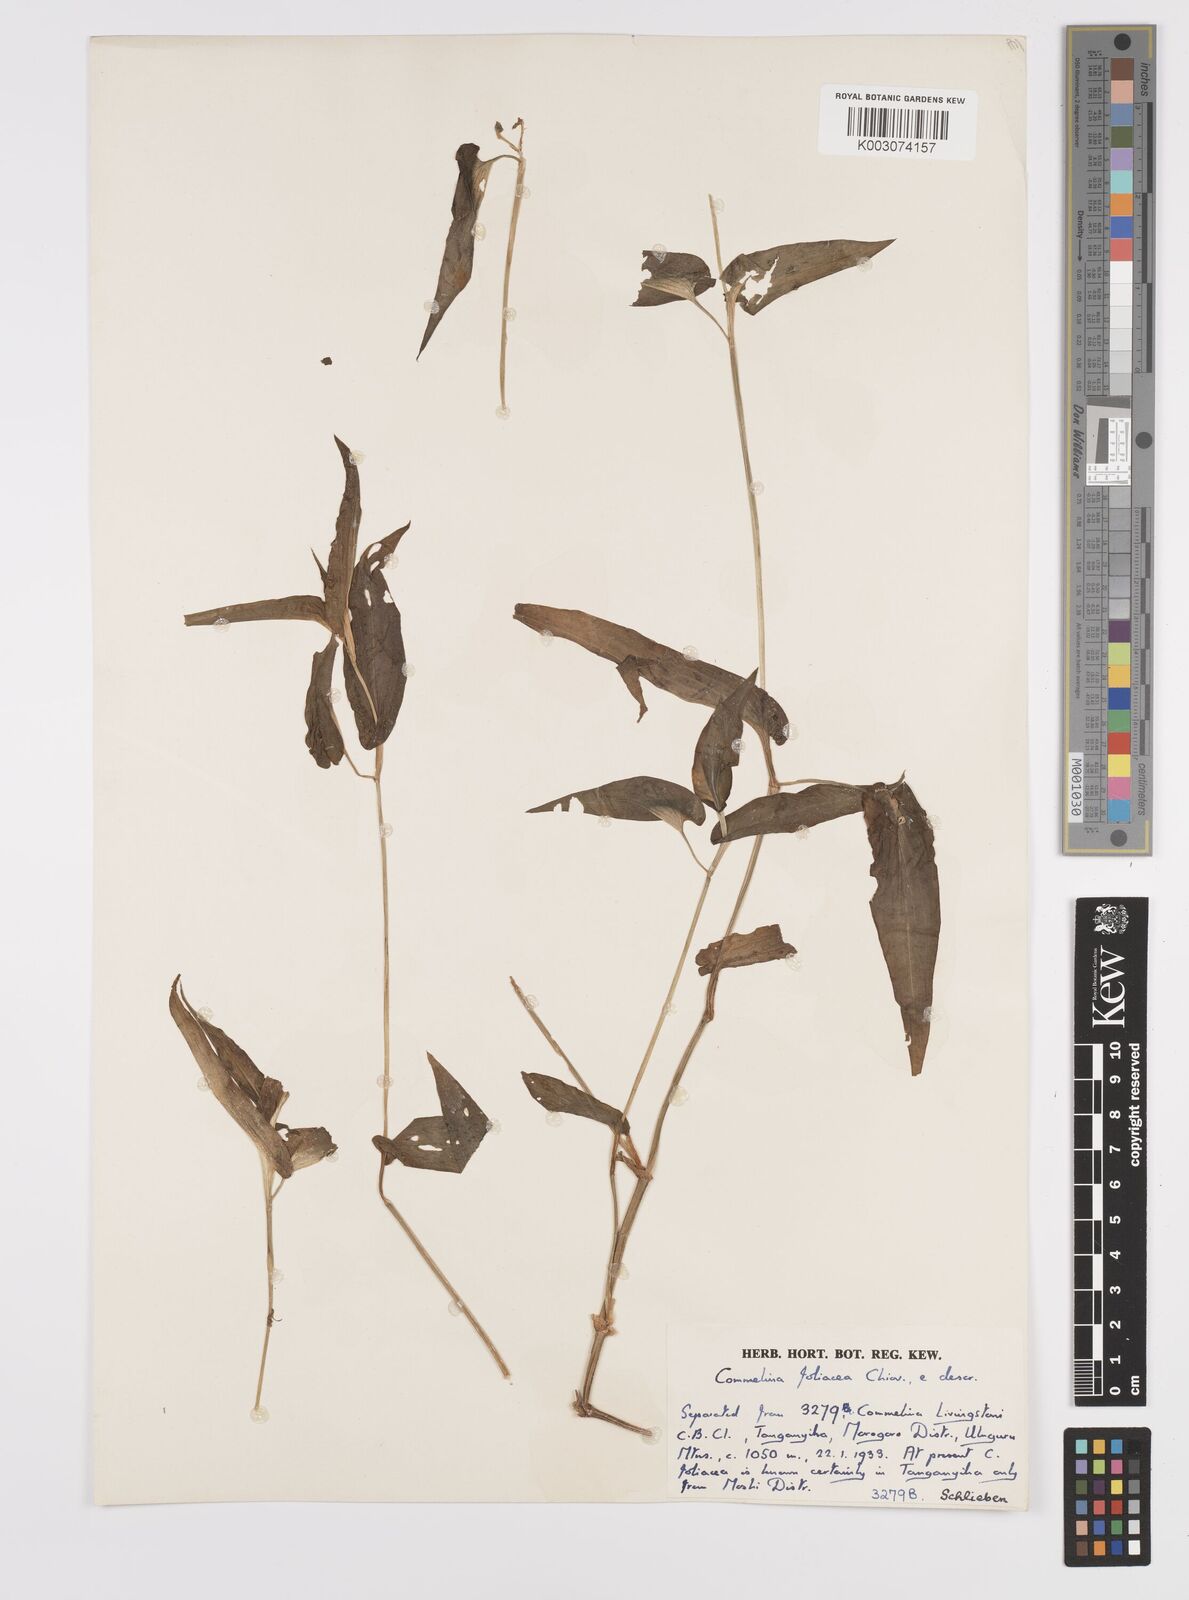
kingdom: Plantae
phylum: Tracheophyta
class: Liliopsida
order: Commelinales
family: Commelinaceae
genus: Commelina
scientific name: Commelina foliacea
